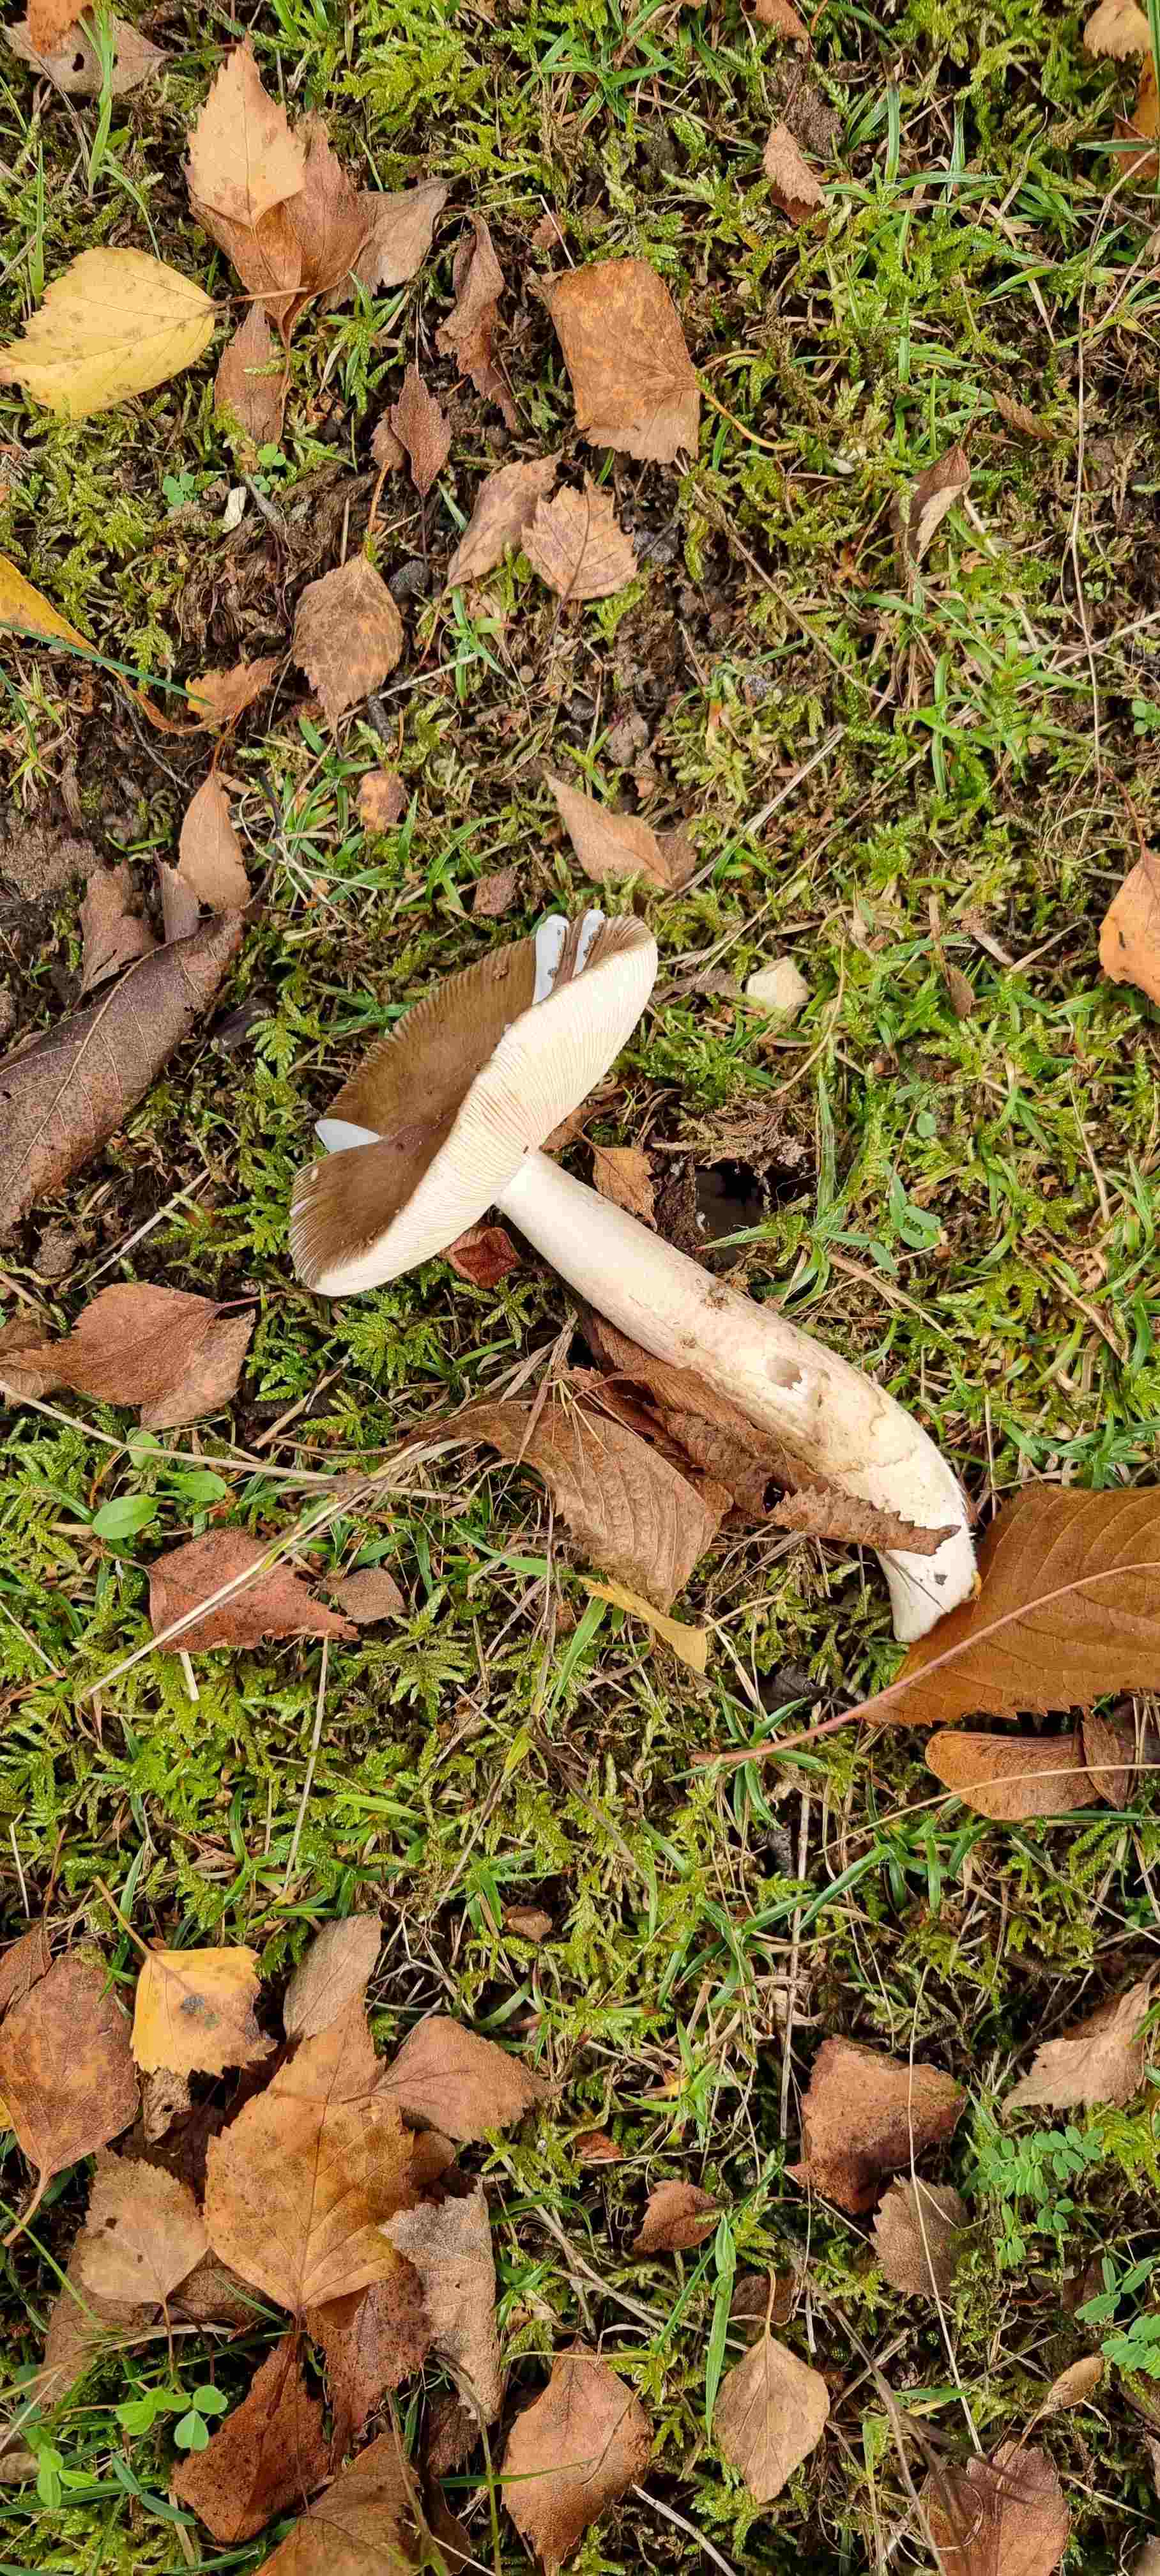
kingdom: Fungi
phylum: Basidiomycota
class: Agaricomycetes
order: Agaricales
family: Amanitaceae
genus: Amanita
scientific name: Amanita fulva
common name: brun kam-fluesvamp
